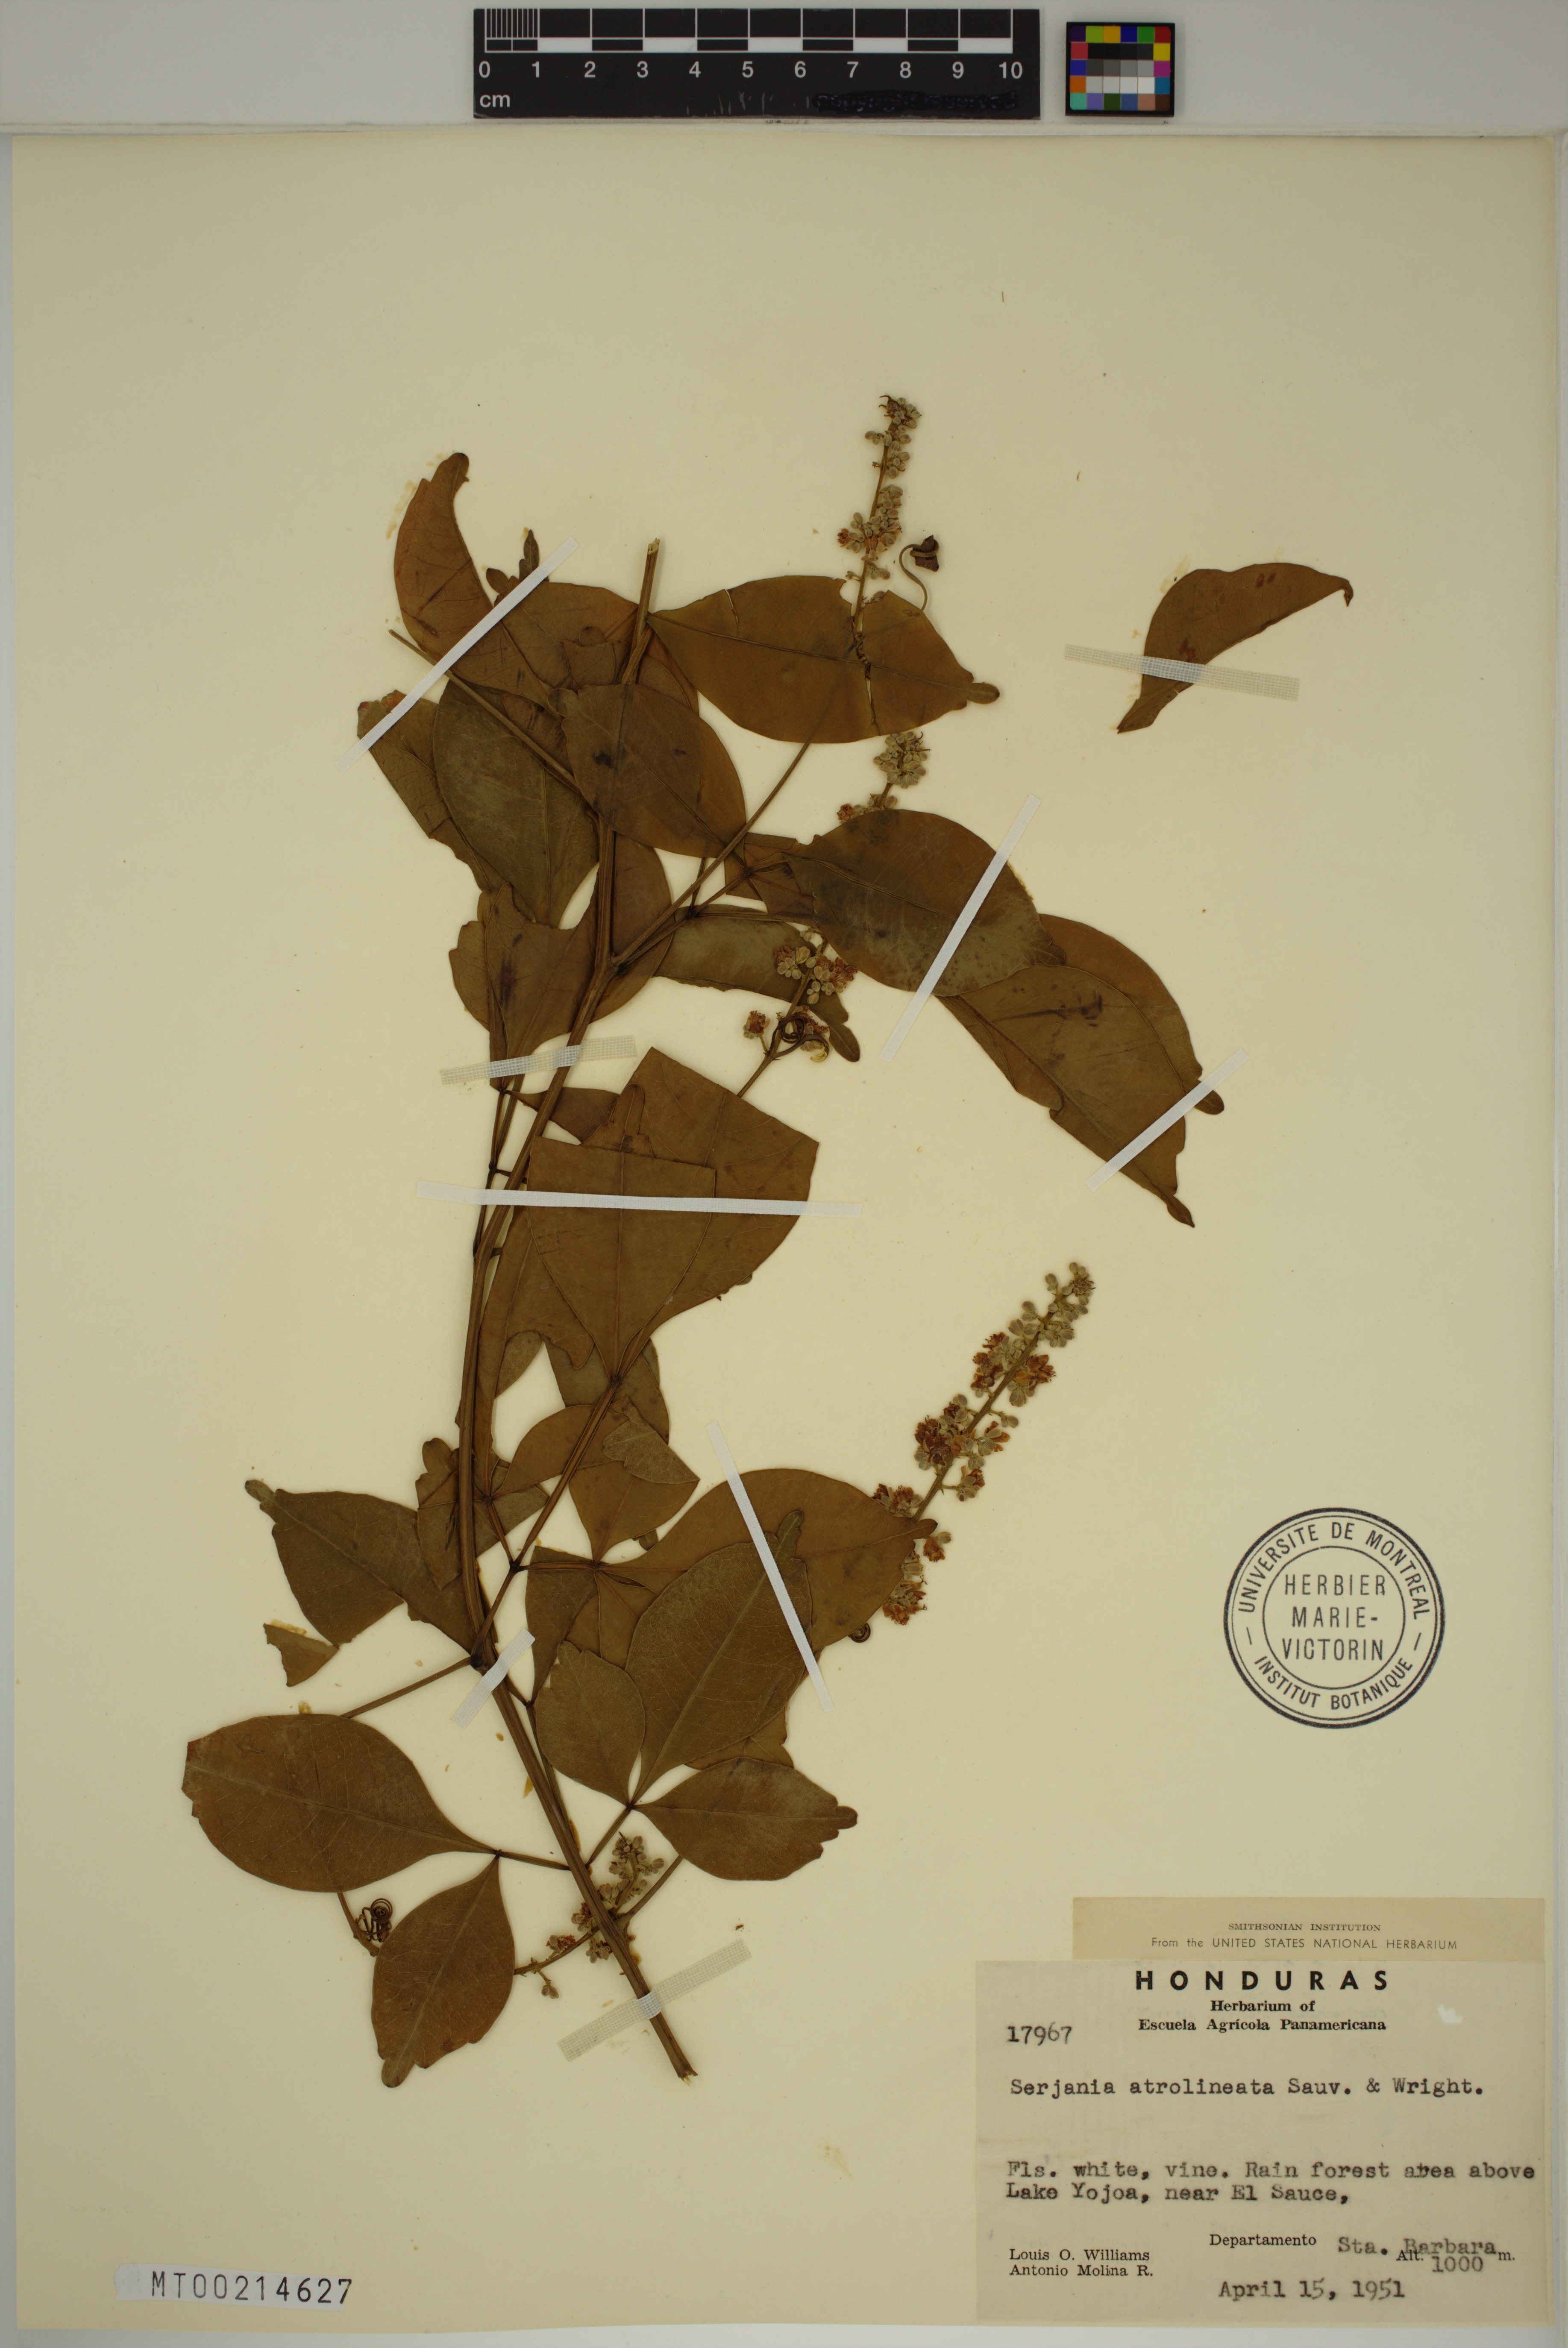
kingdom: Plantae
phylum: Tracheophyta
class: Magnoliopsida
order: Sapindales
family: Sapindaceae
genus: Serjania
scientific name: Serjania atrolineata
